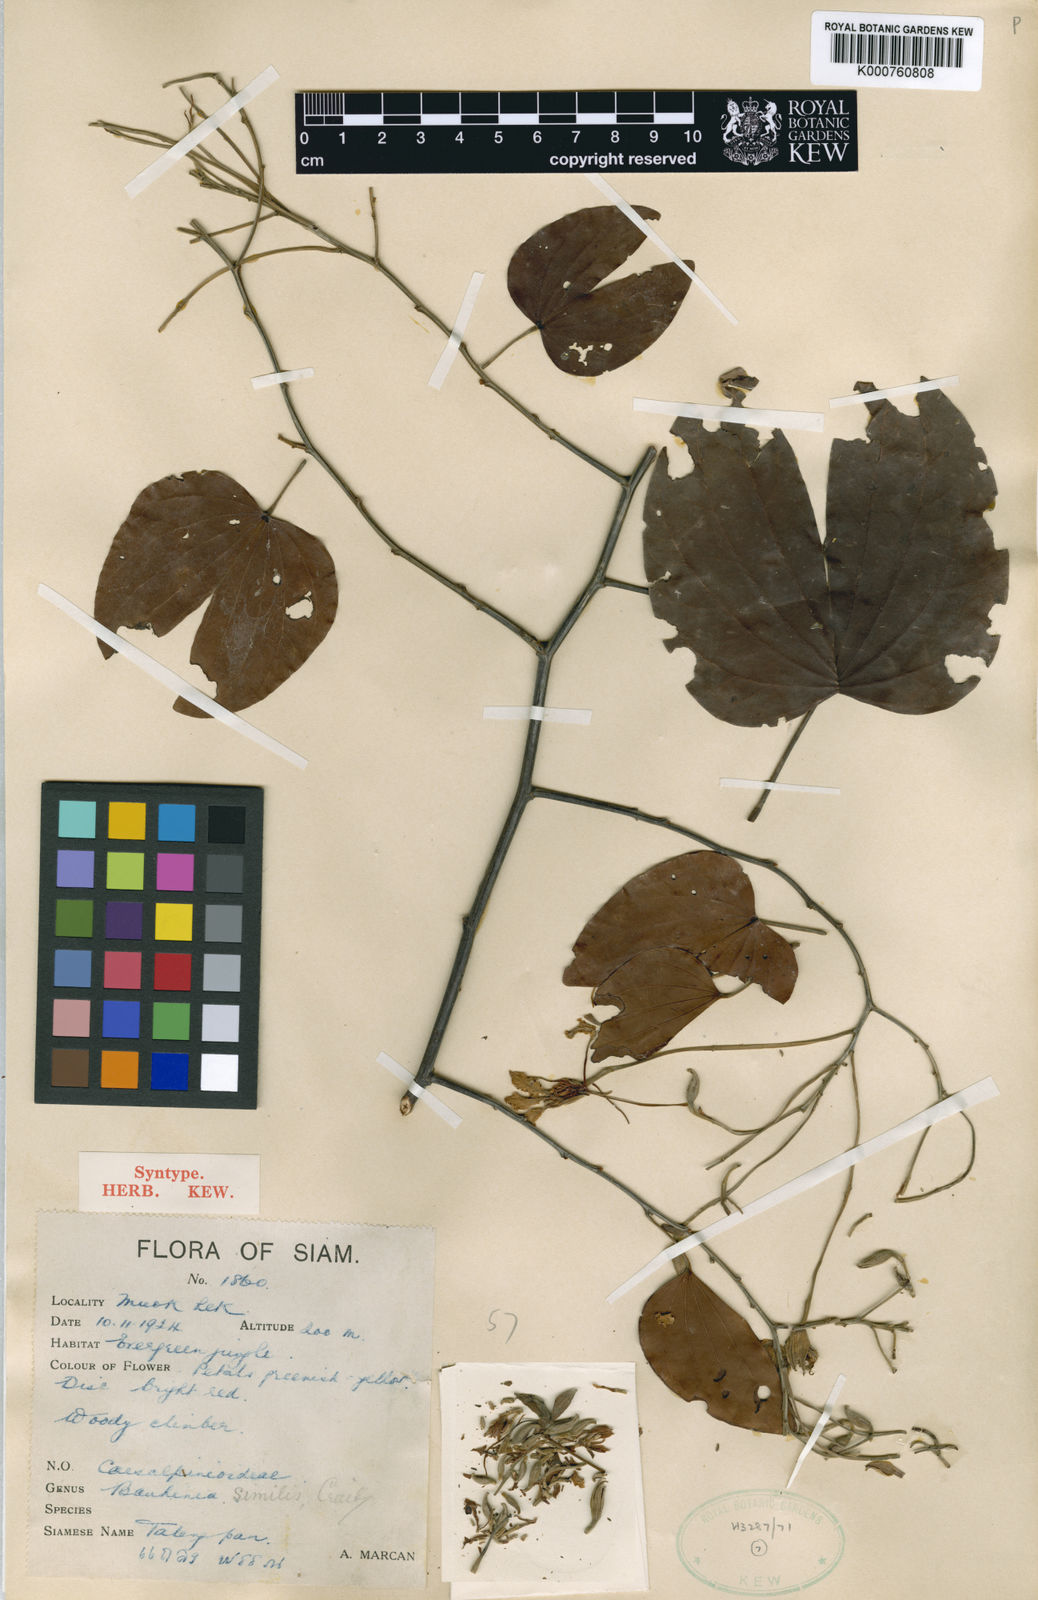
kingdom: Plantae
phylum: Tracheophyta
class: Magnoliopsida
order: Fabales
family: Fabaceae
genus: Phanera
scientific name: Phanera similis
